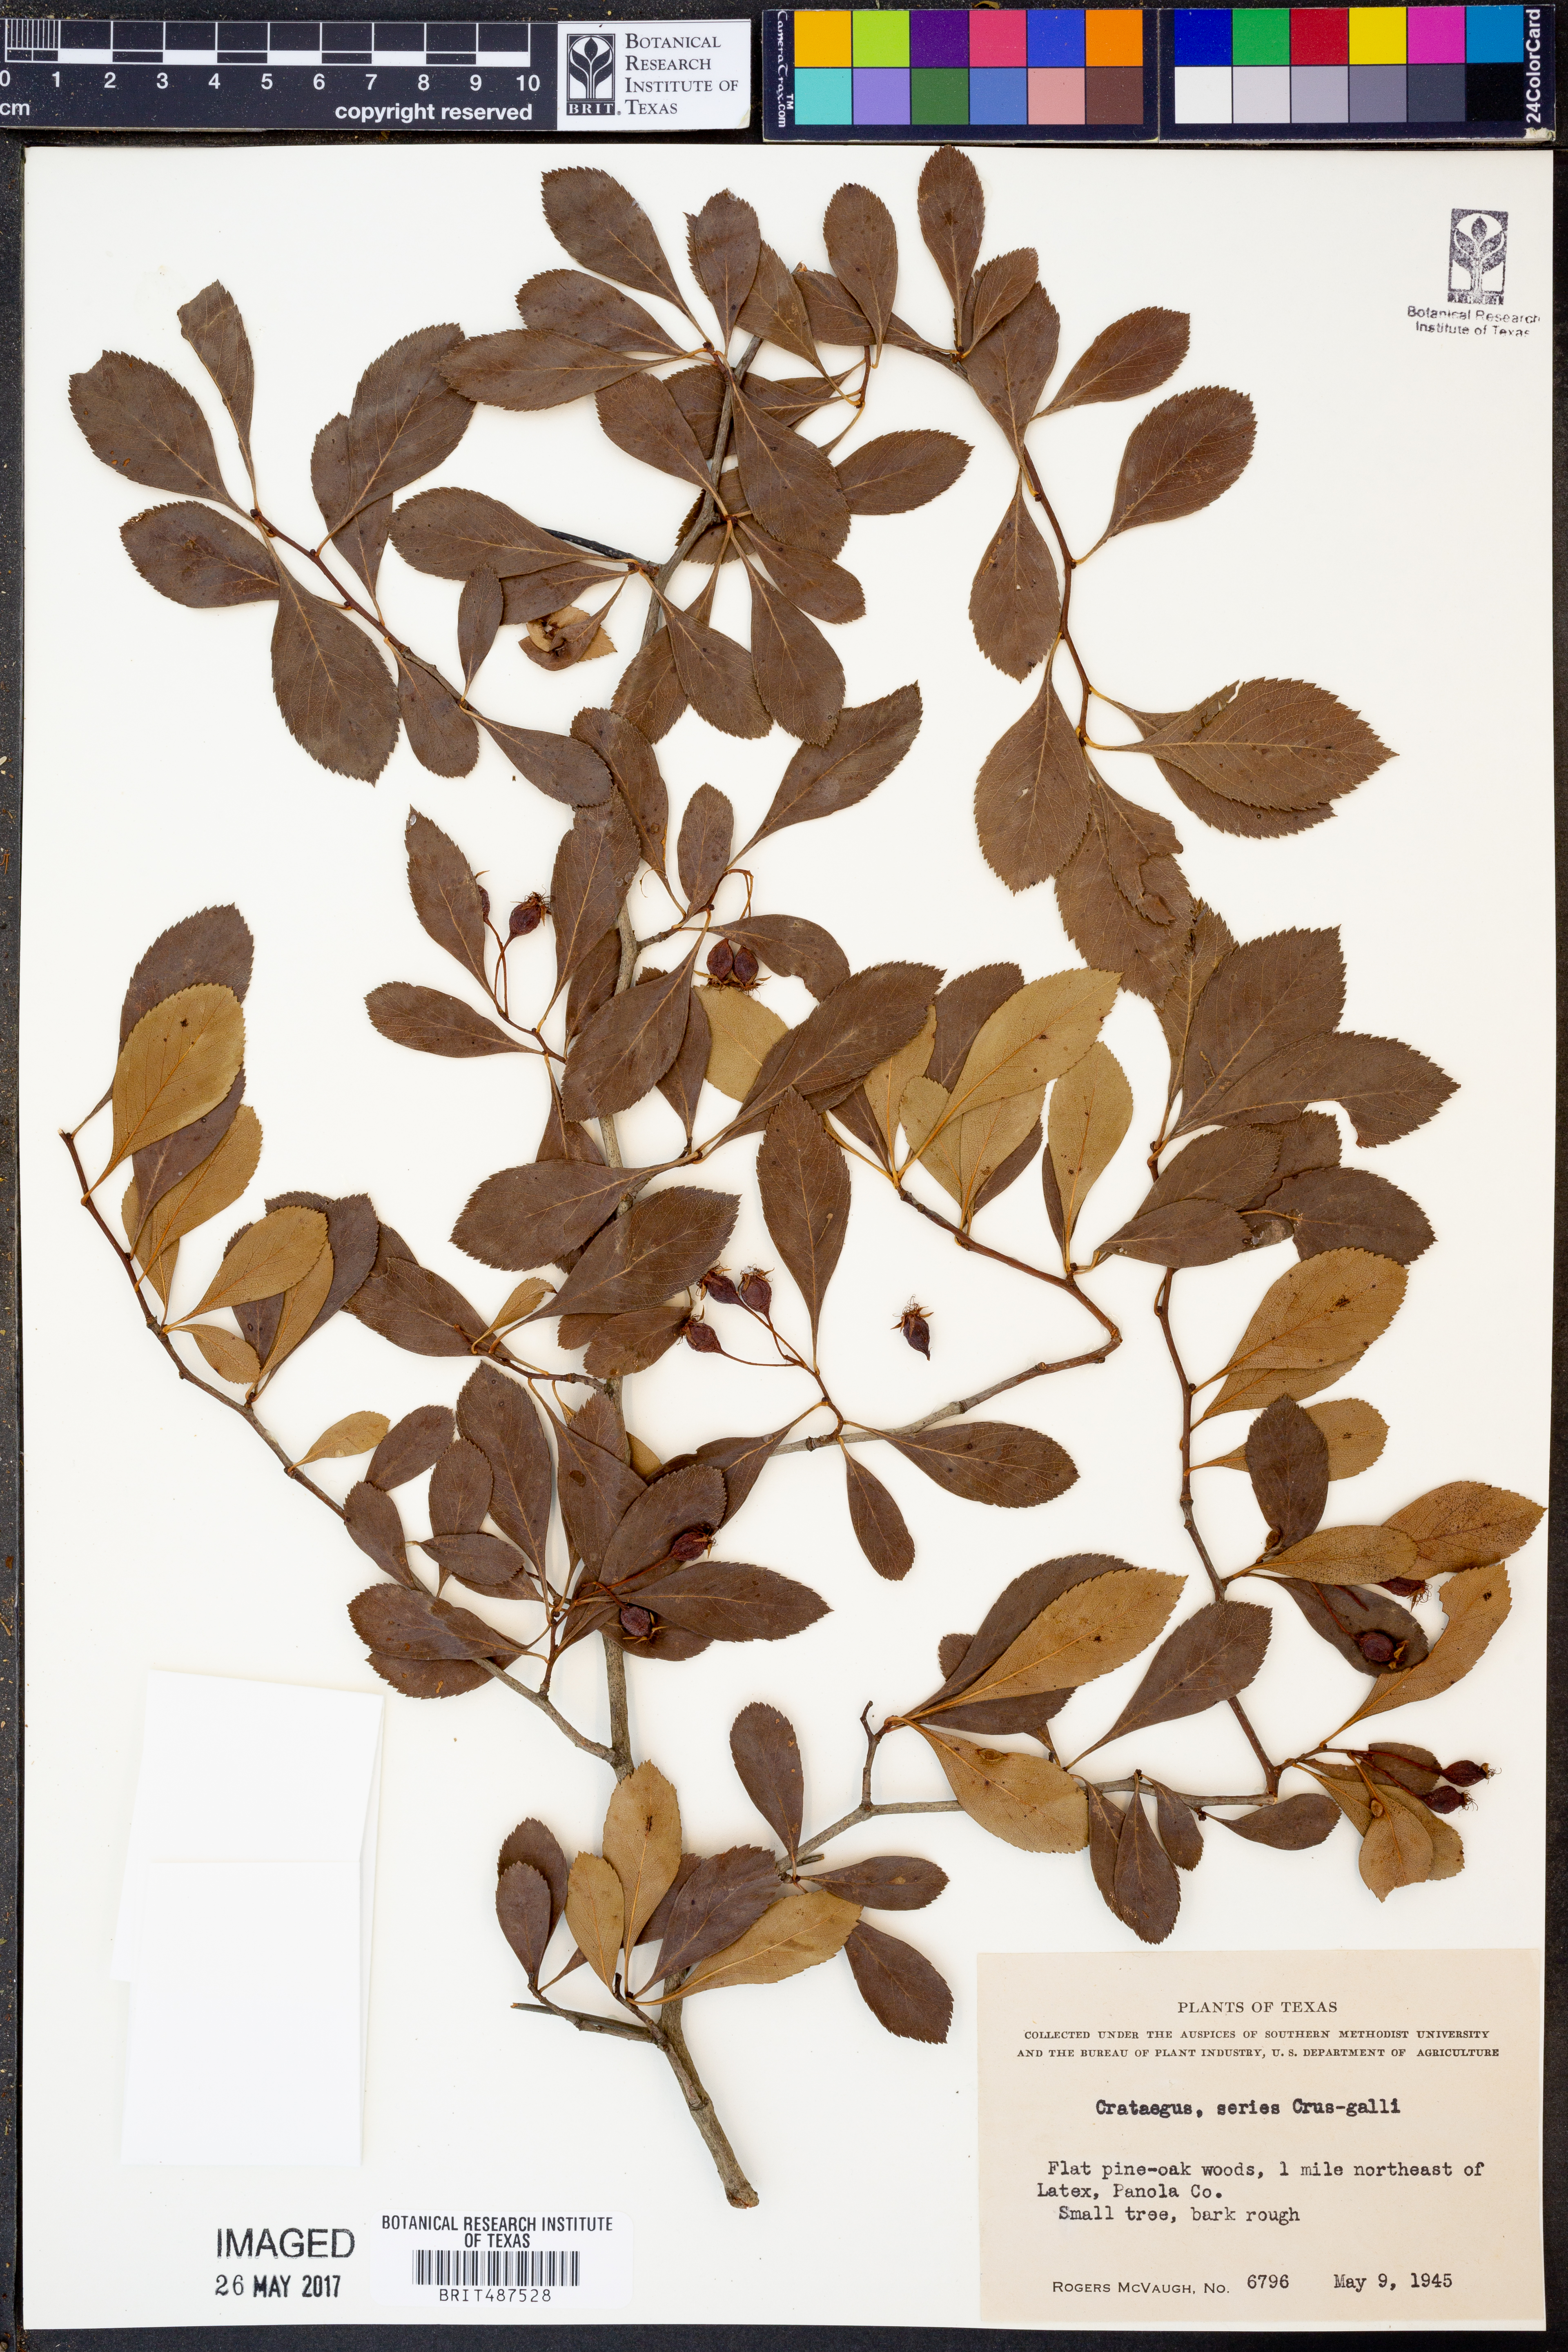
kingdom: Plantae
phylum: Tracheophyta
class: Magnoliopsida
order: Rosales
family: Rosaceae
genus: Crataegus
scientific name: Crataegus crus-galli
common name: Cockspurthorn
